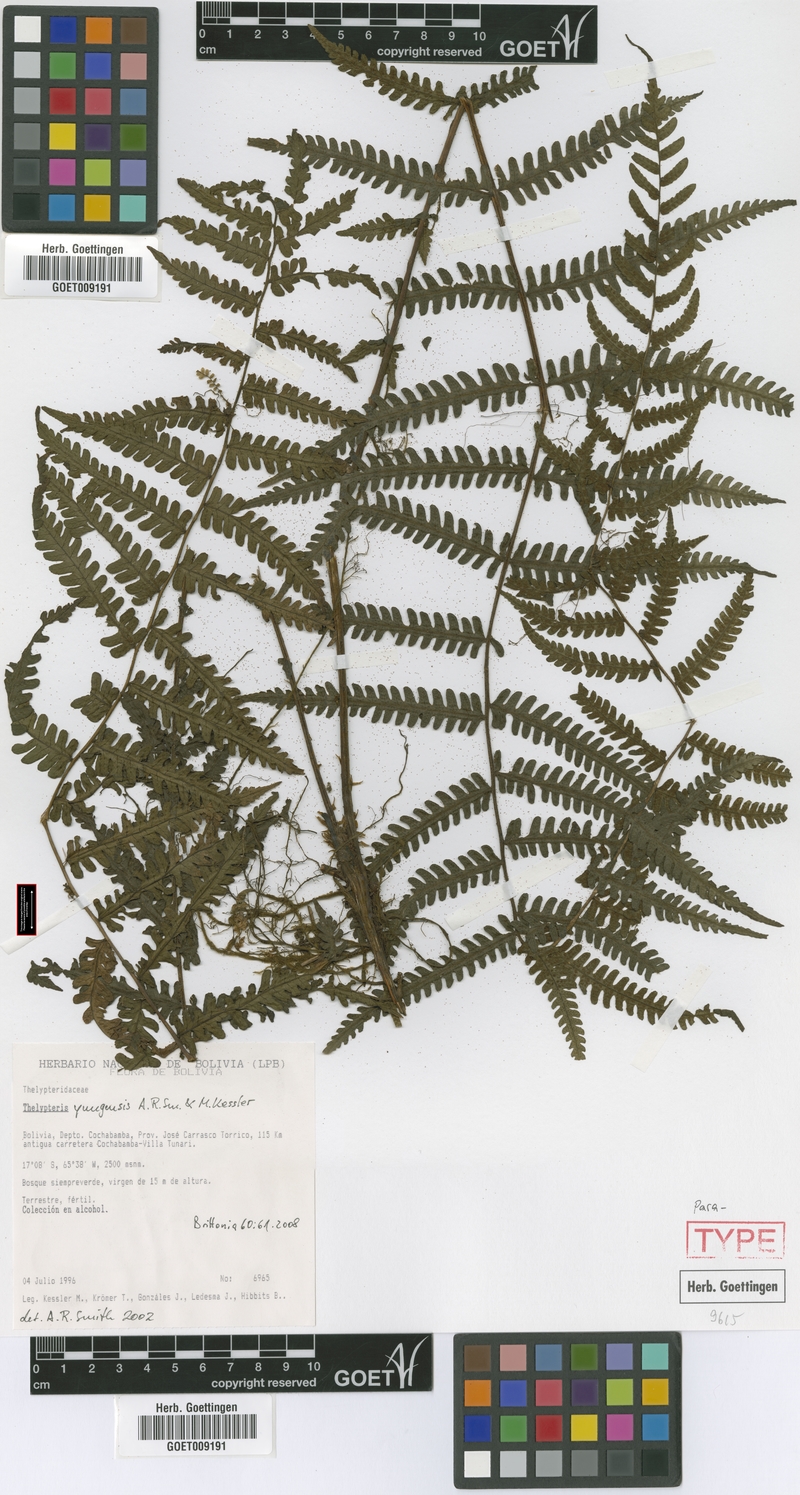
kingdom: Plantae
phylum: Tracheophyta
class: Polypodiopsida
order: Polypodiales
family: Thelypteridaceae
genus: Amauropelta
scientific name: Amauropelta yungensis
